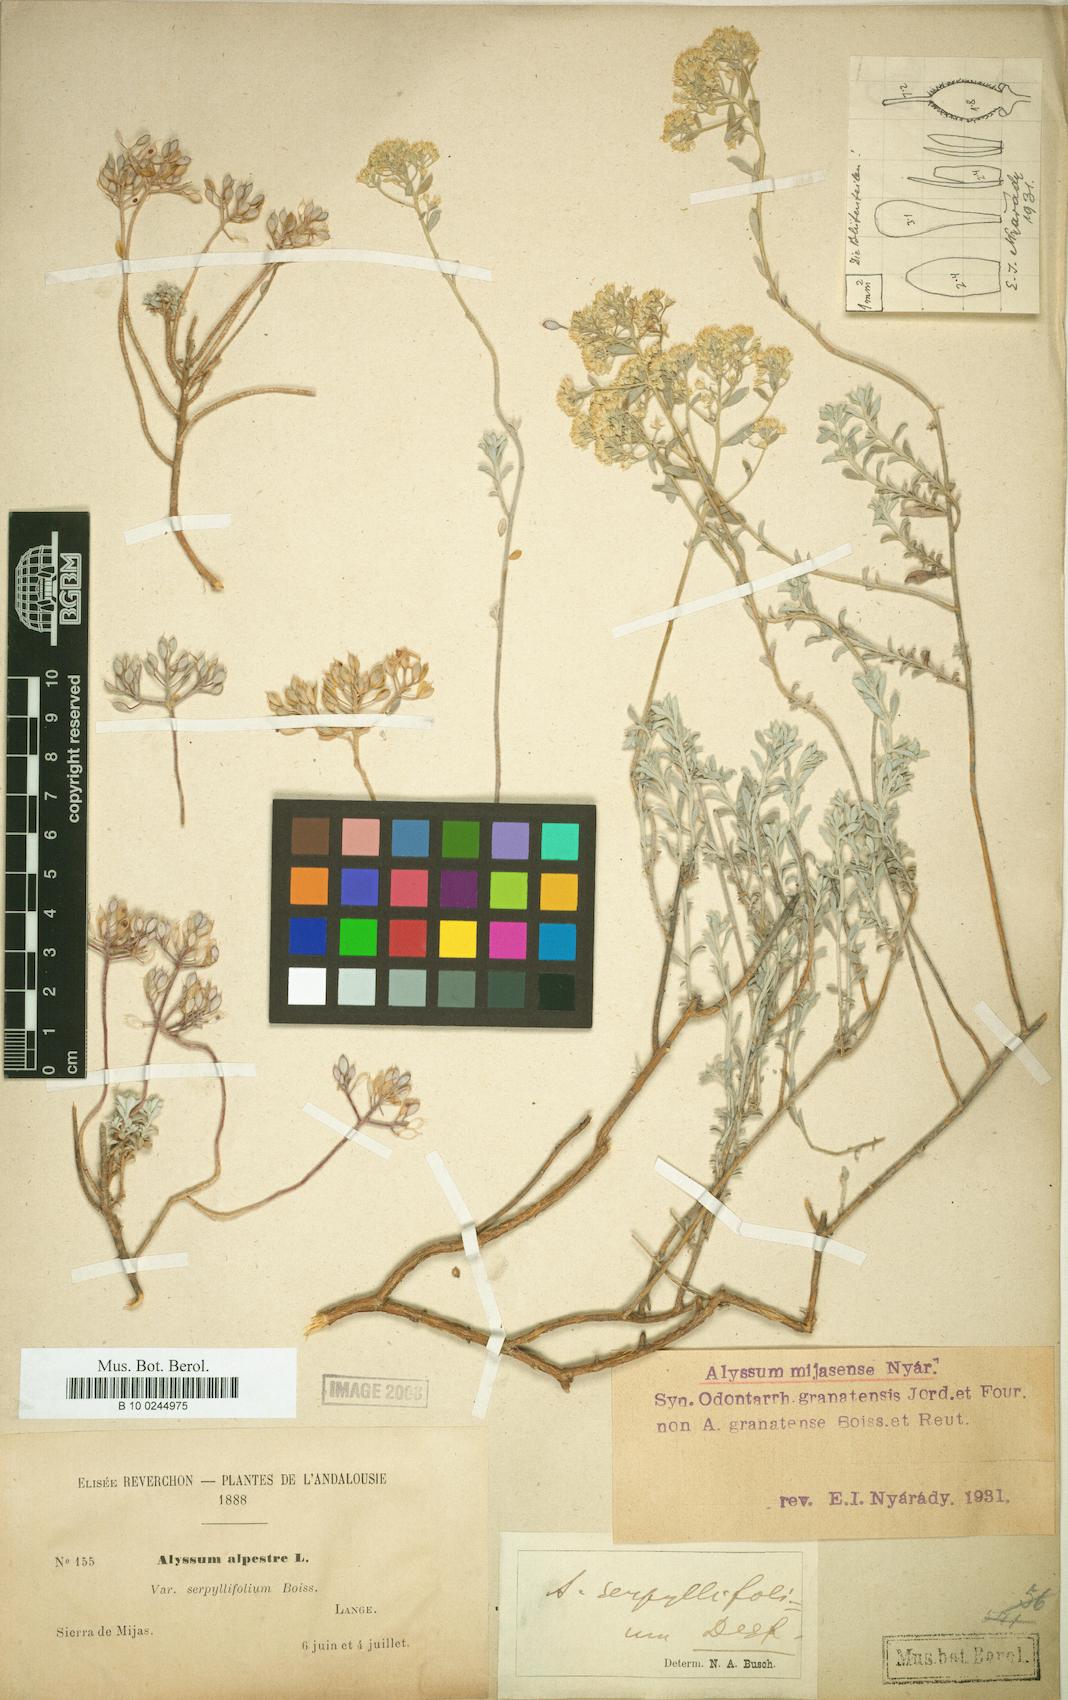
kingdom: Plantae
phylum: Tracheophyta
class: Magnoliopsida
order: Brassicales
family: Brassicaceae
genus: Odontarrhena
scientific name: Odontarrhena serpyllifolia
